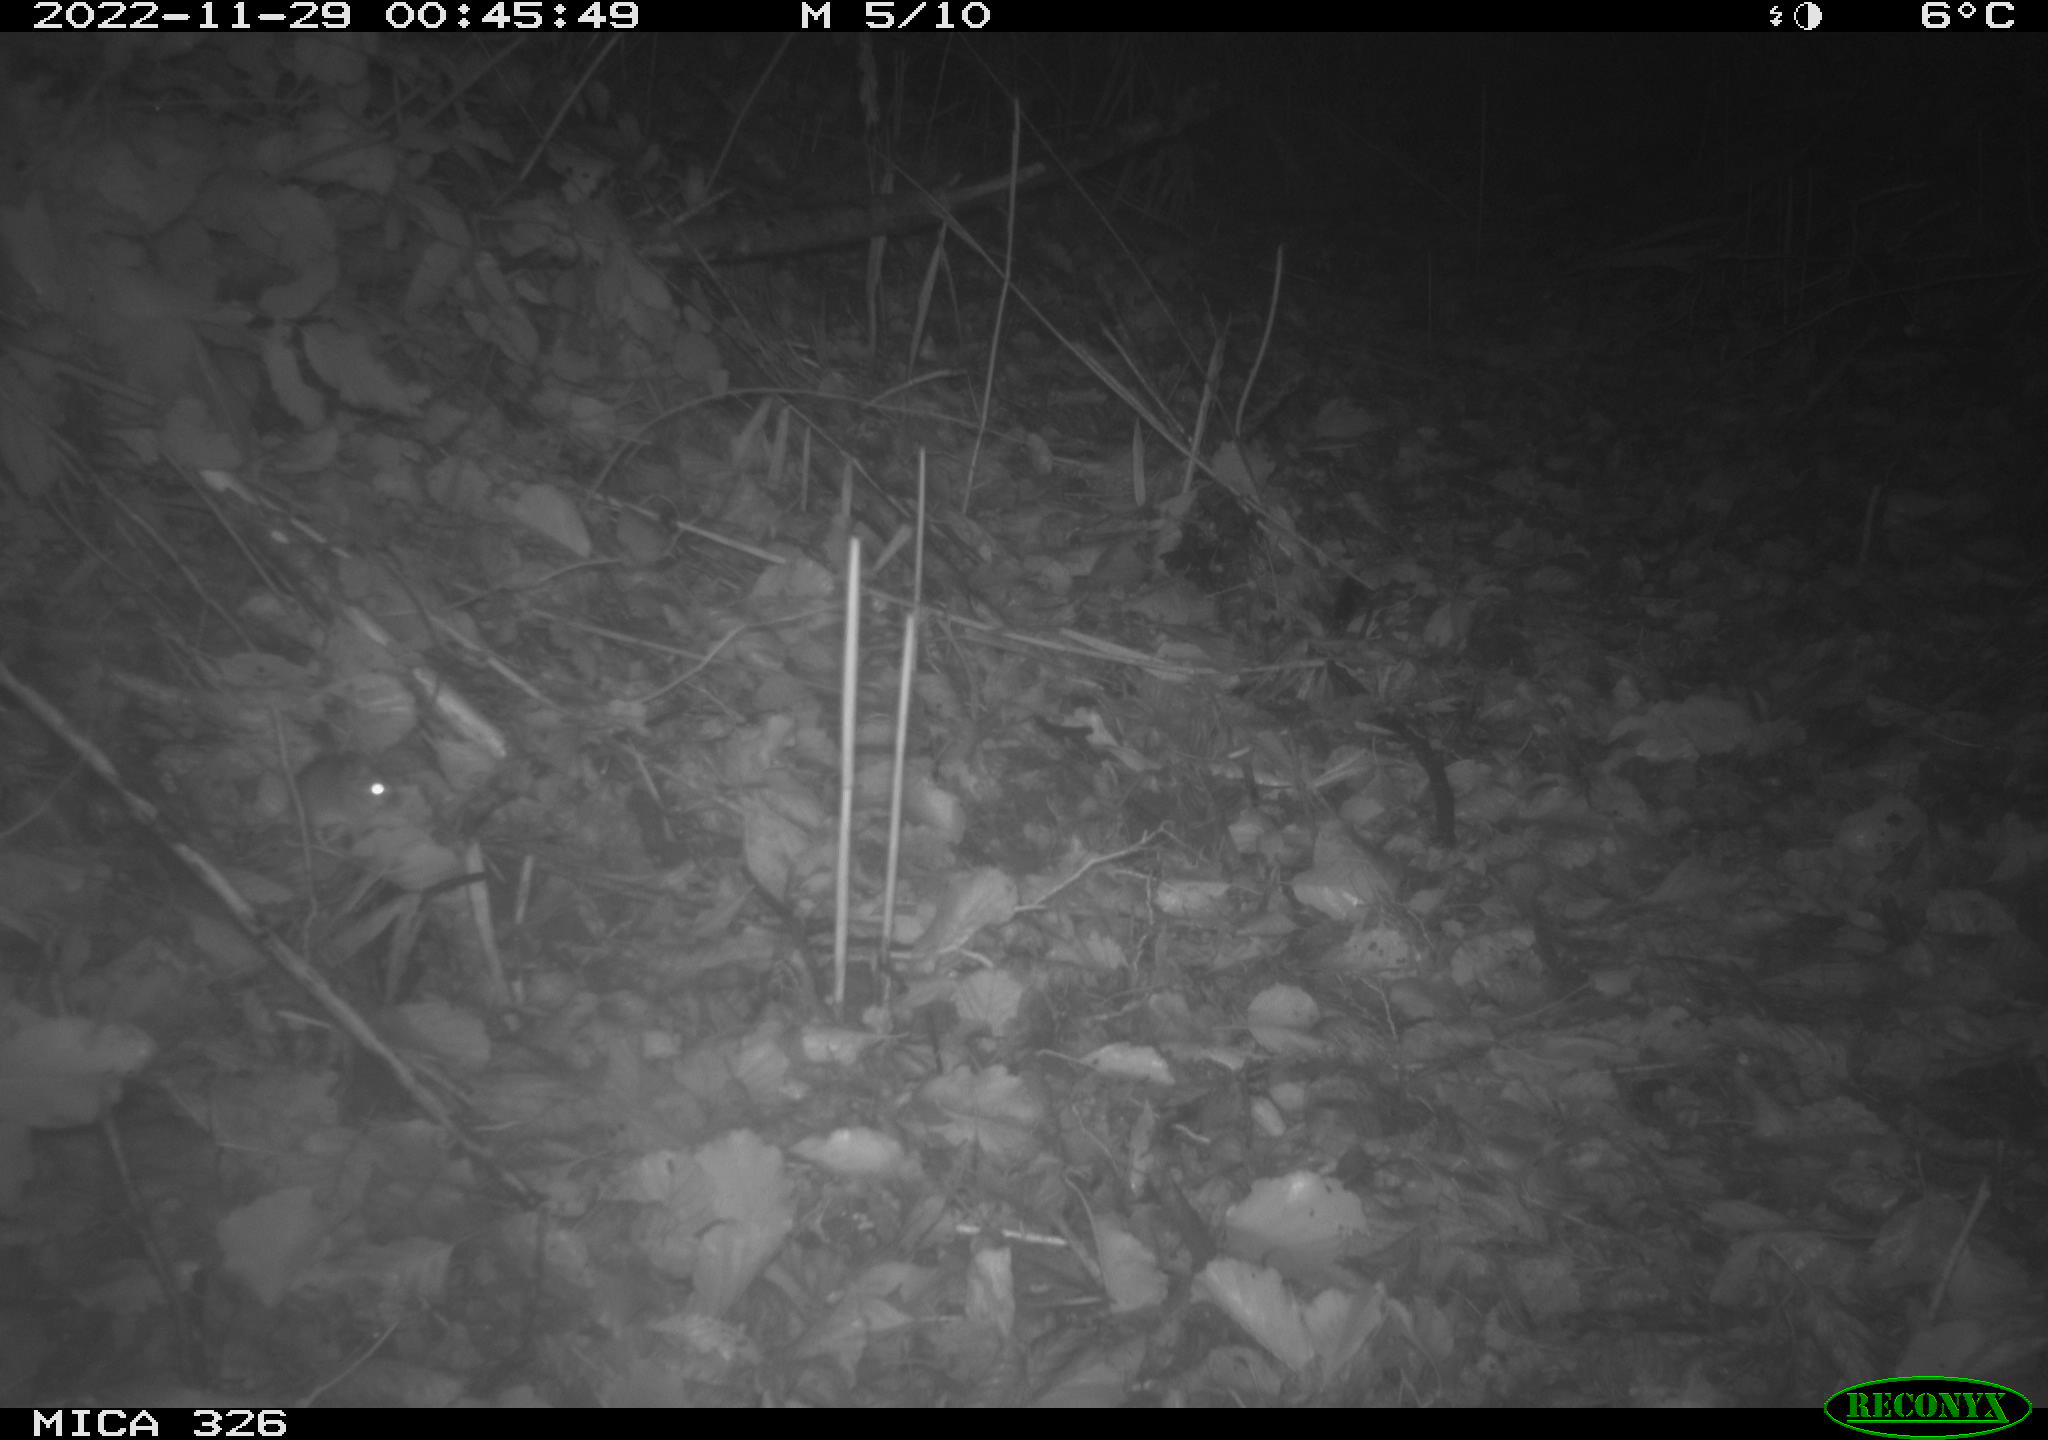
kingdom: Animalia
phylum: Chordata
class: Mammalia
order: Rodentia
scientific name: Rodentia
